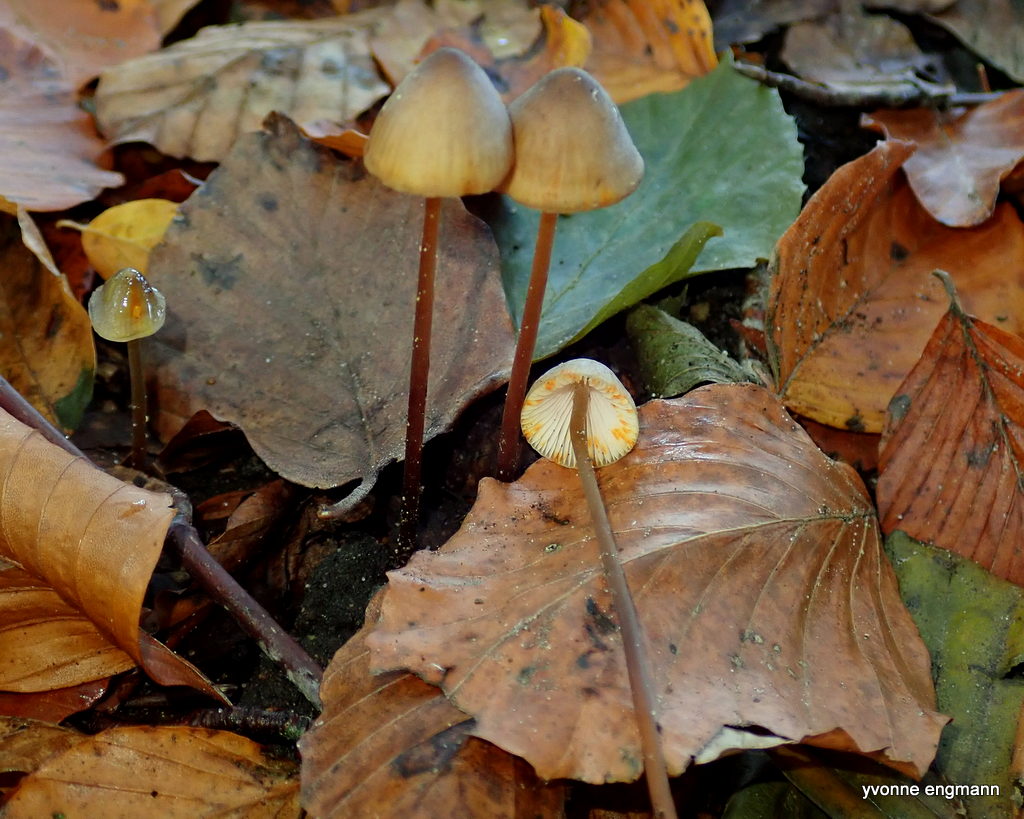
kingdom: Fungi
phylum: Basidiomycota
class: Agaricomycetes
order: Agaricales
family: Mycenaceae
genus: Mycena
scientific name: Mycena crocata
